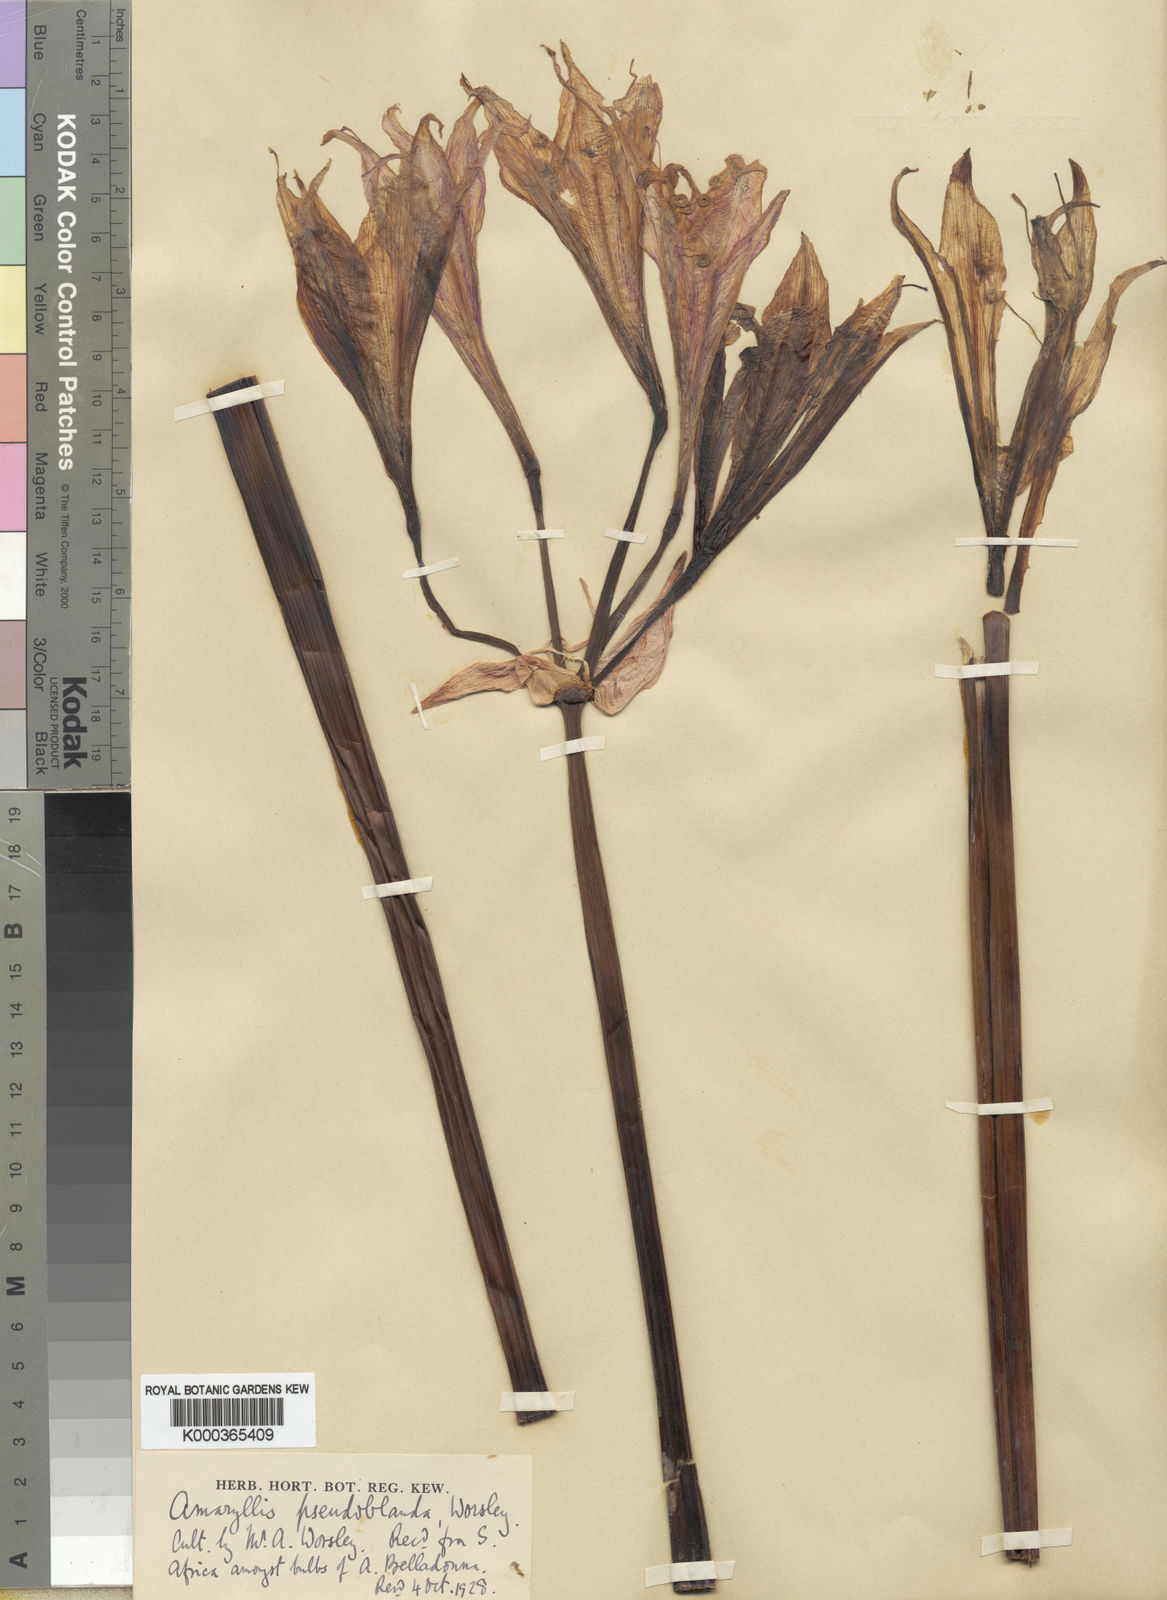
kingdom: Plantae
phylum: Tracheophyta
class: Liliopsida
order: Asparagales
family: Amaryllidaceae
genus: Amaryllis
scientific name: Amaryllis
